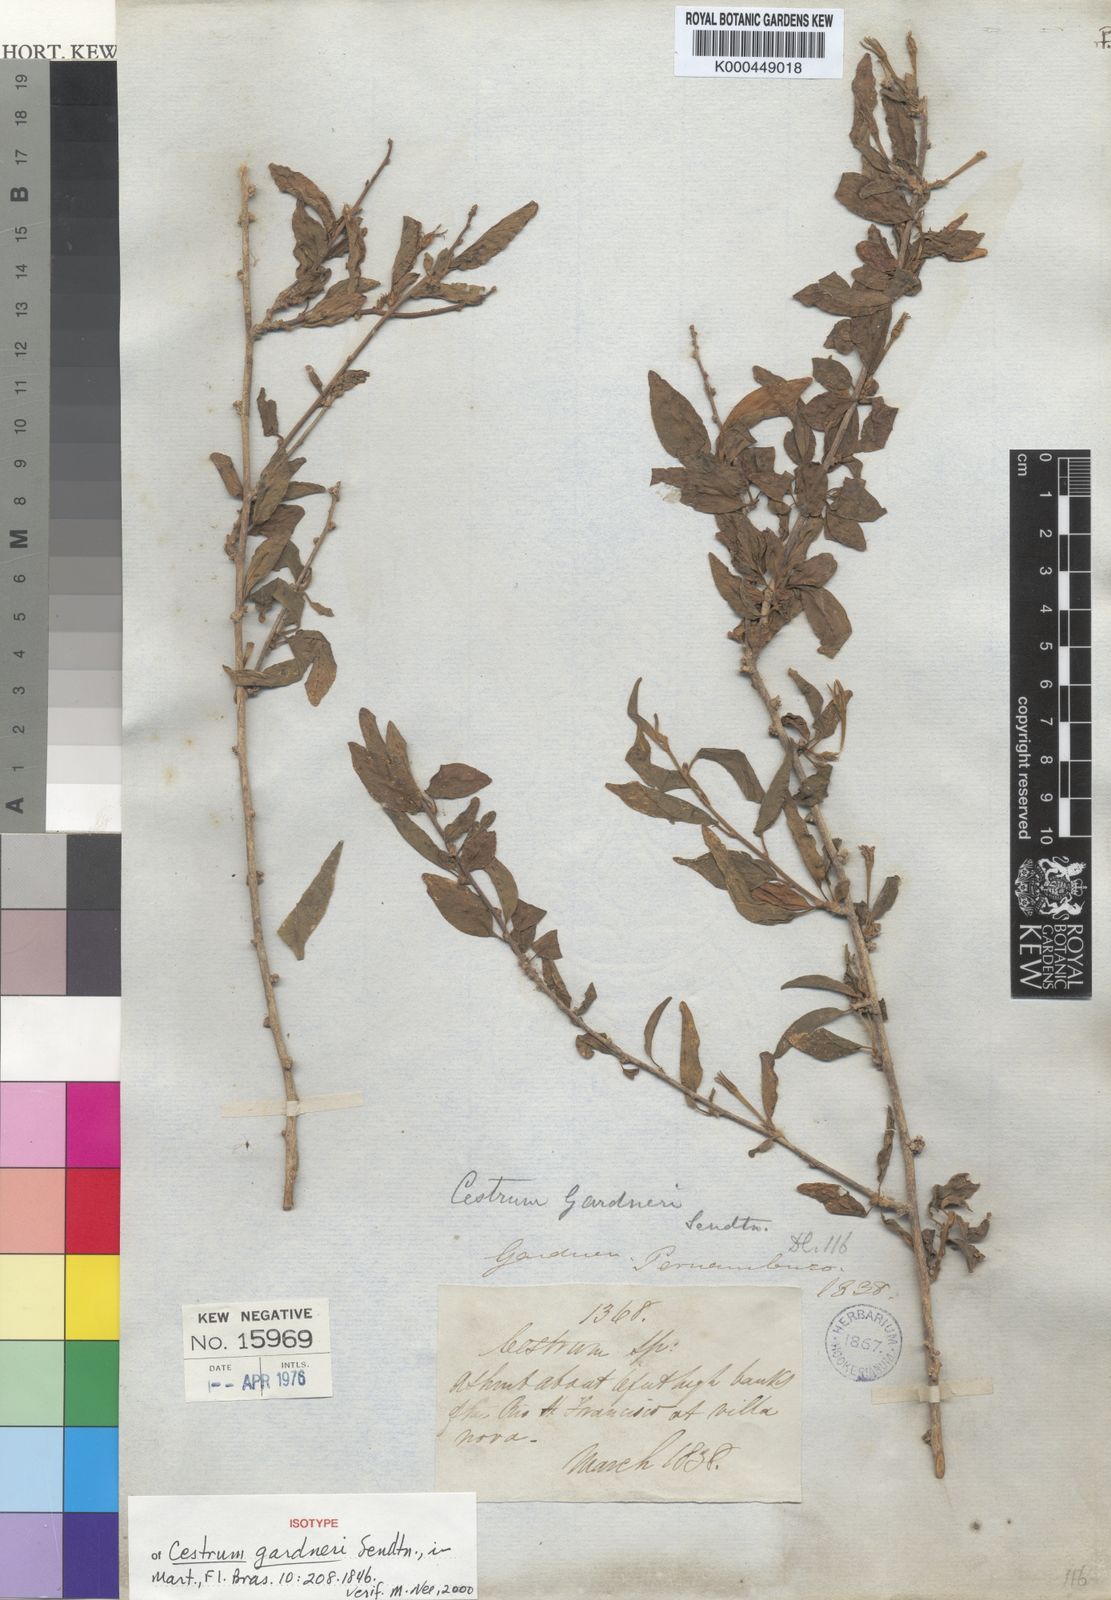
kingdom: Plantae
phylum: Tracheophyta
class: Magnoliopsida
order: Solanales
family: Solanaceae
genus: Cestrum
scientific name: Cestrum gardneri
